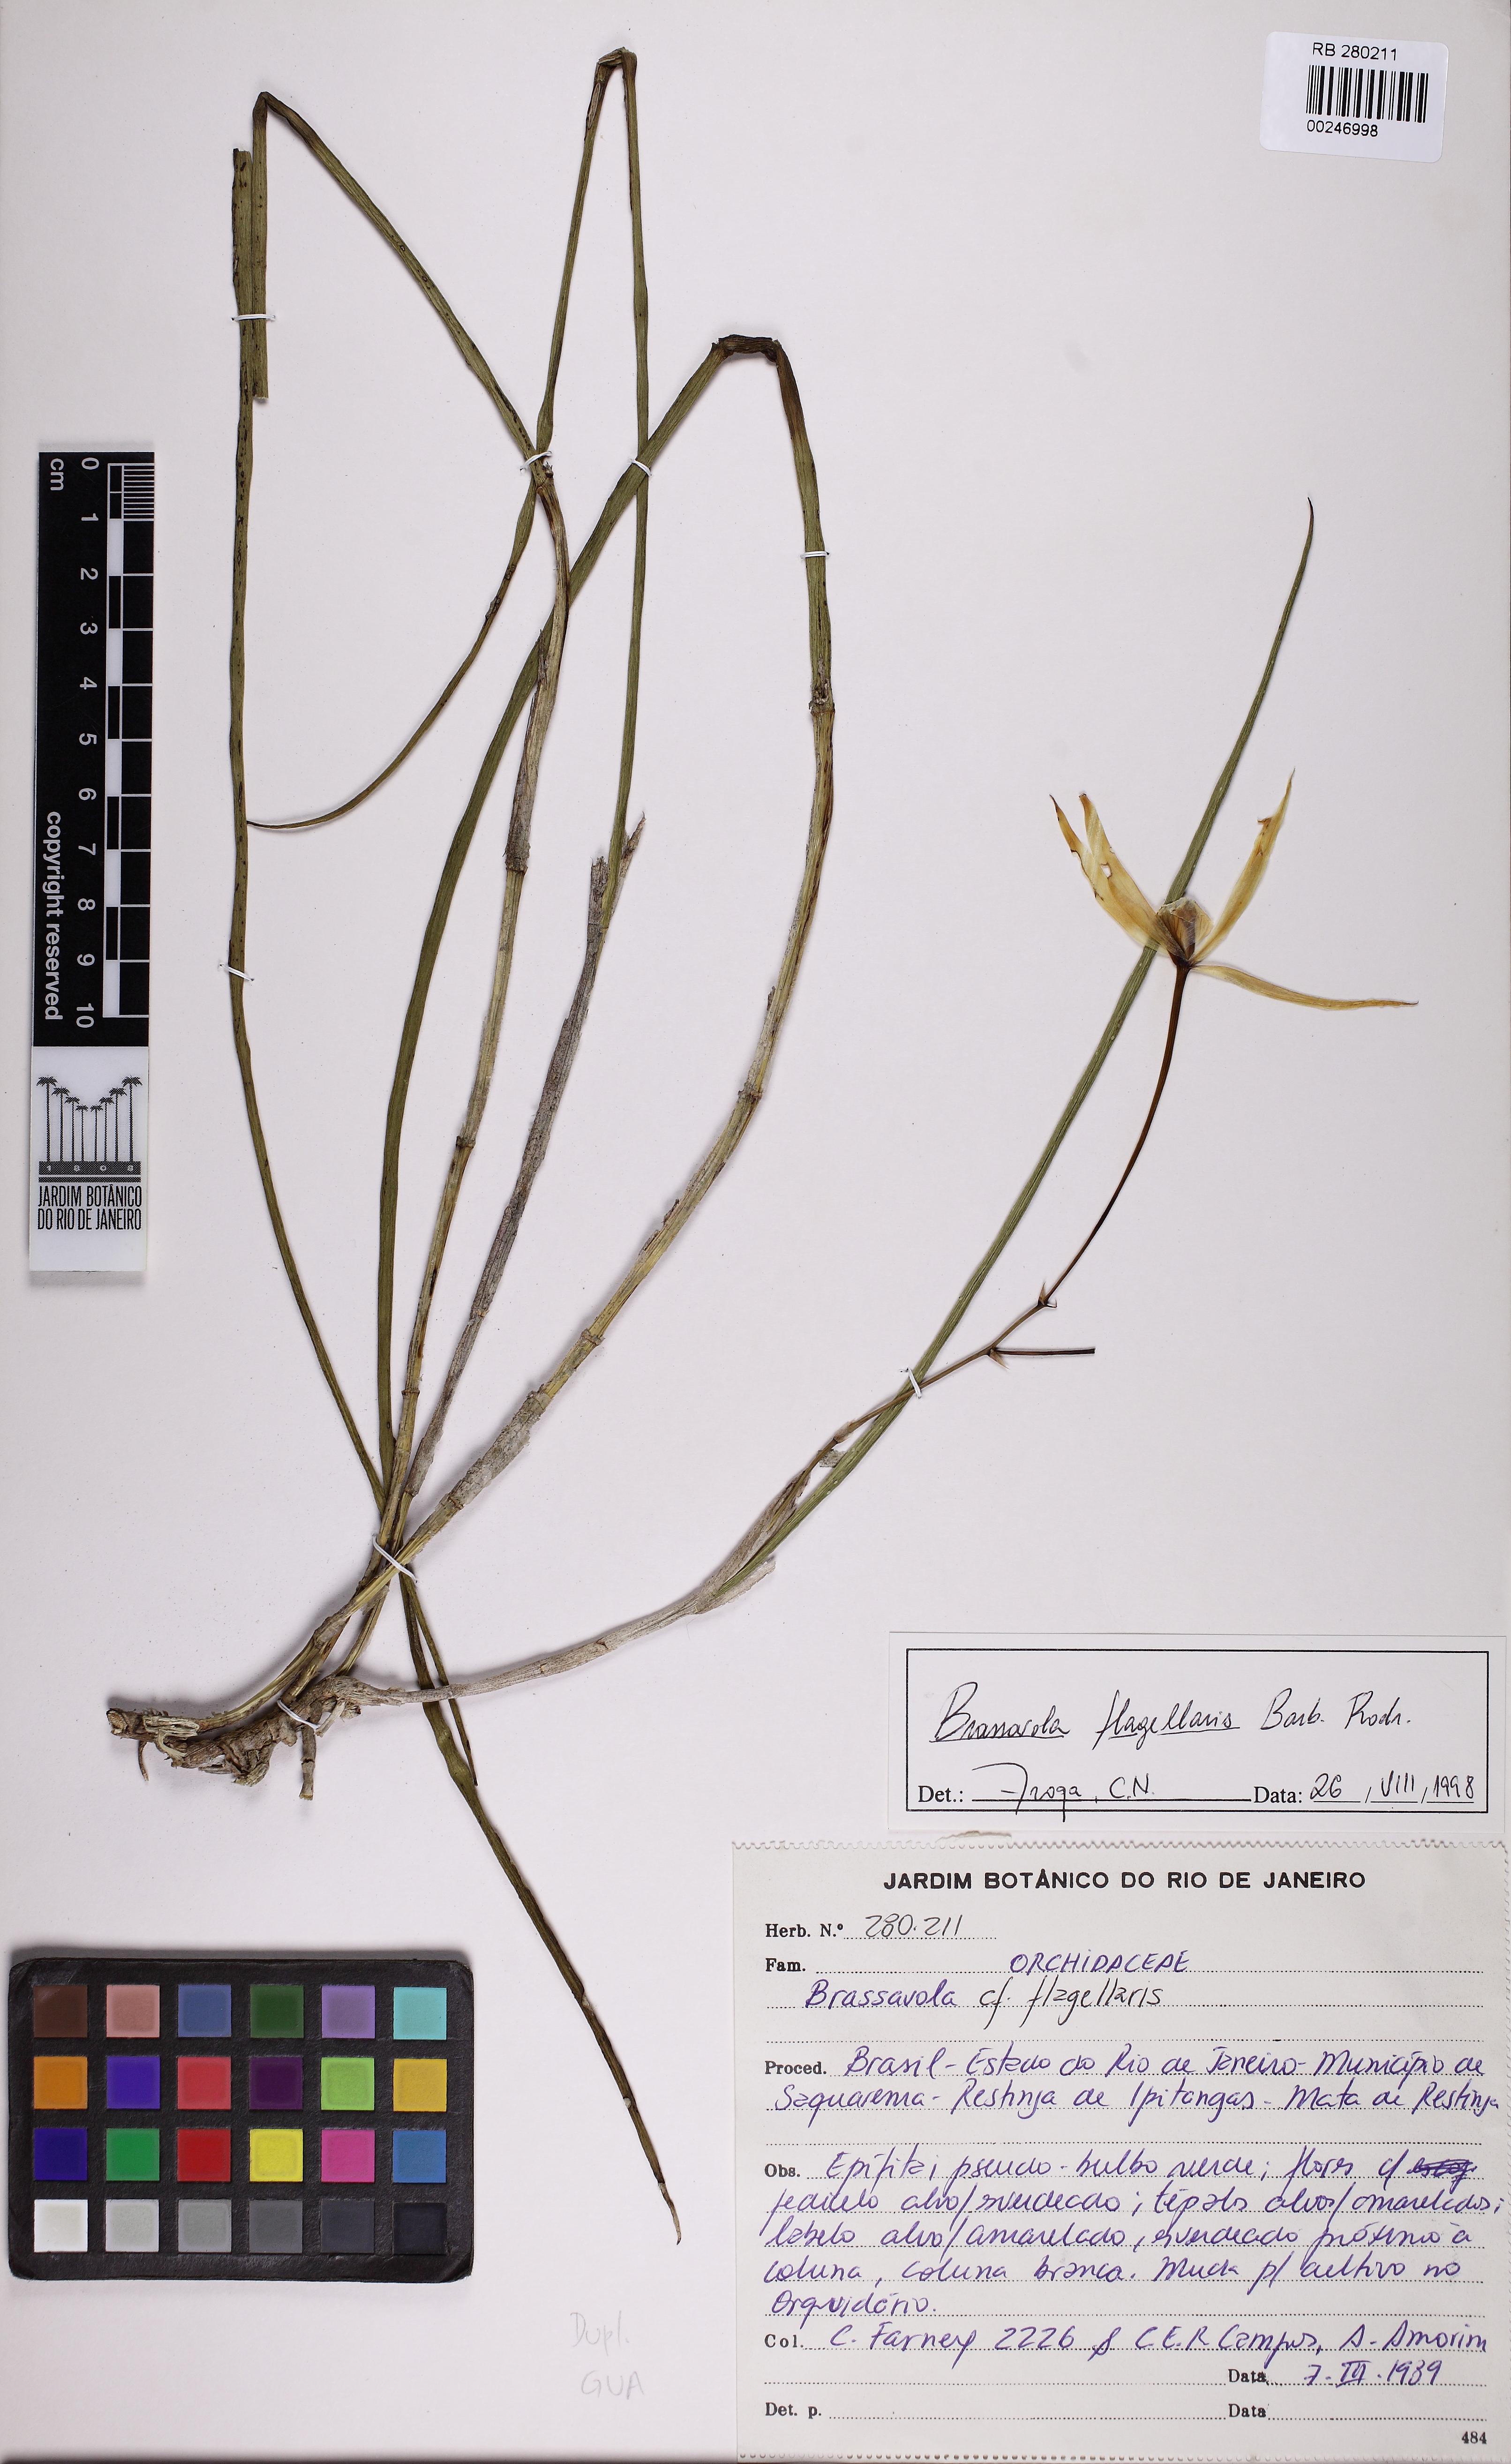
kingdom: Plantae
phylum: Tracheophyta
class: Liliopsida
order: Asparagales
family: Orchidaceae
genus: Brassavola
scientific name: Brassavola flagellaris
